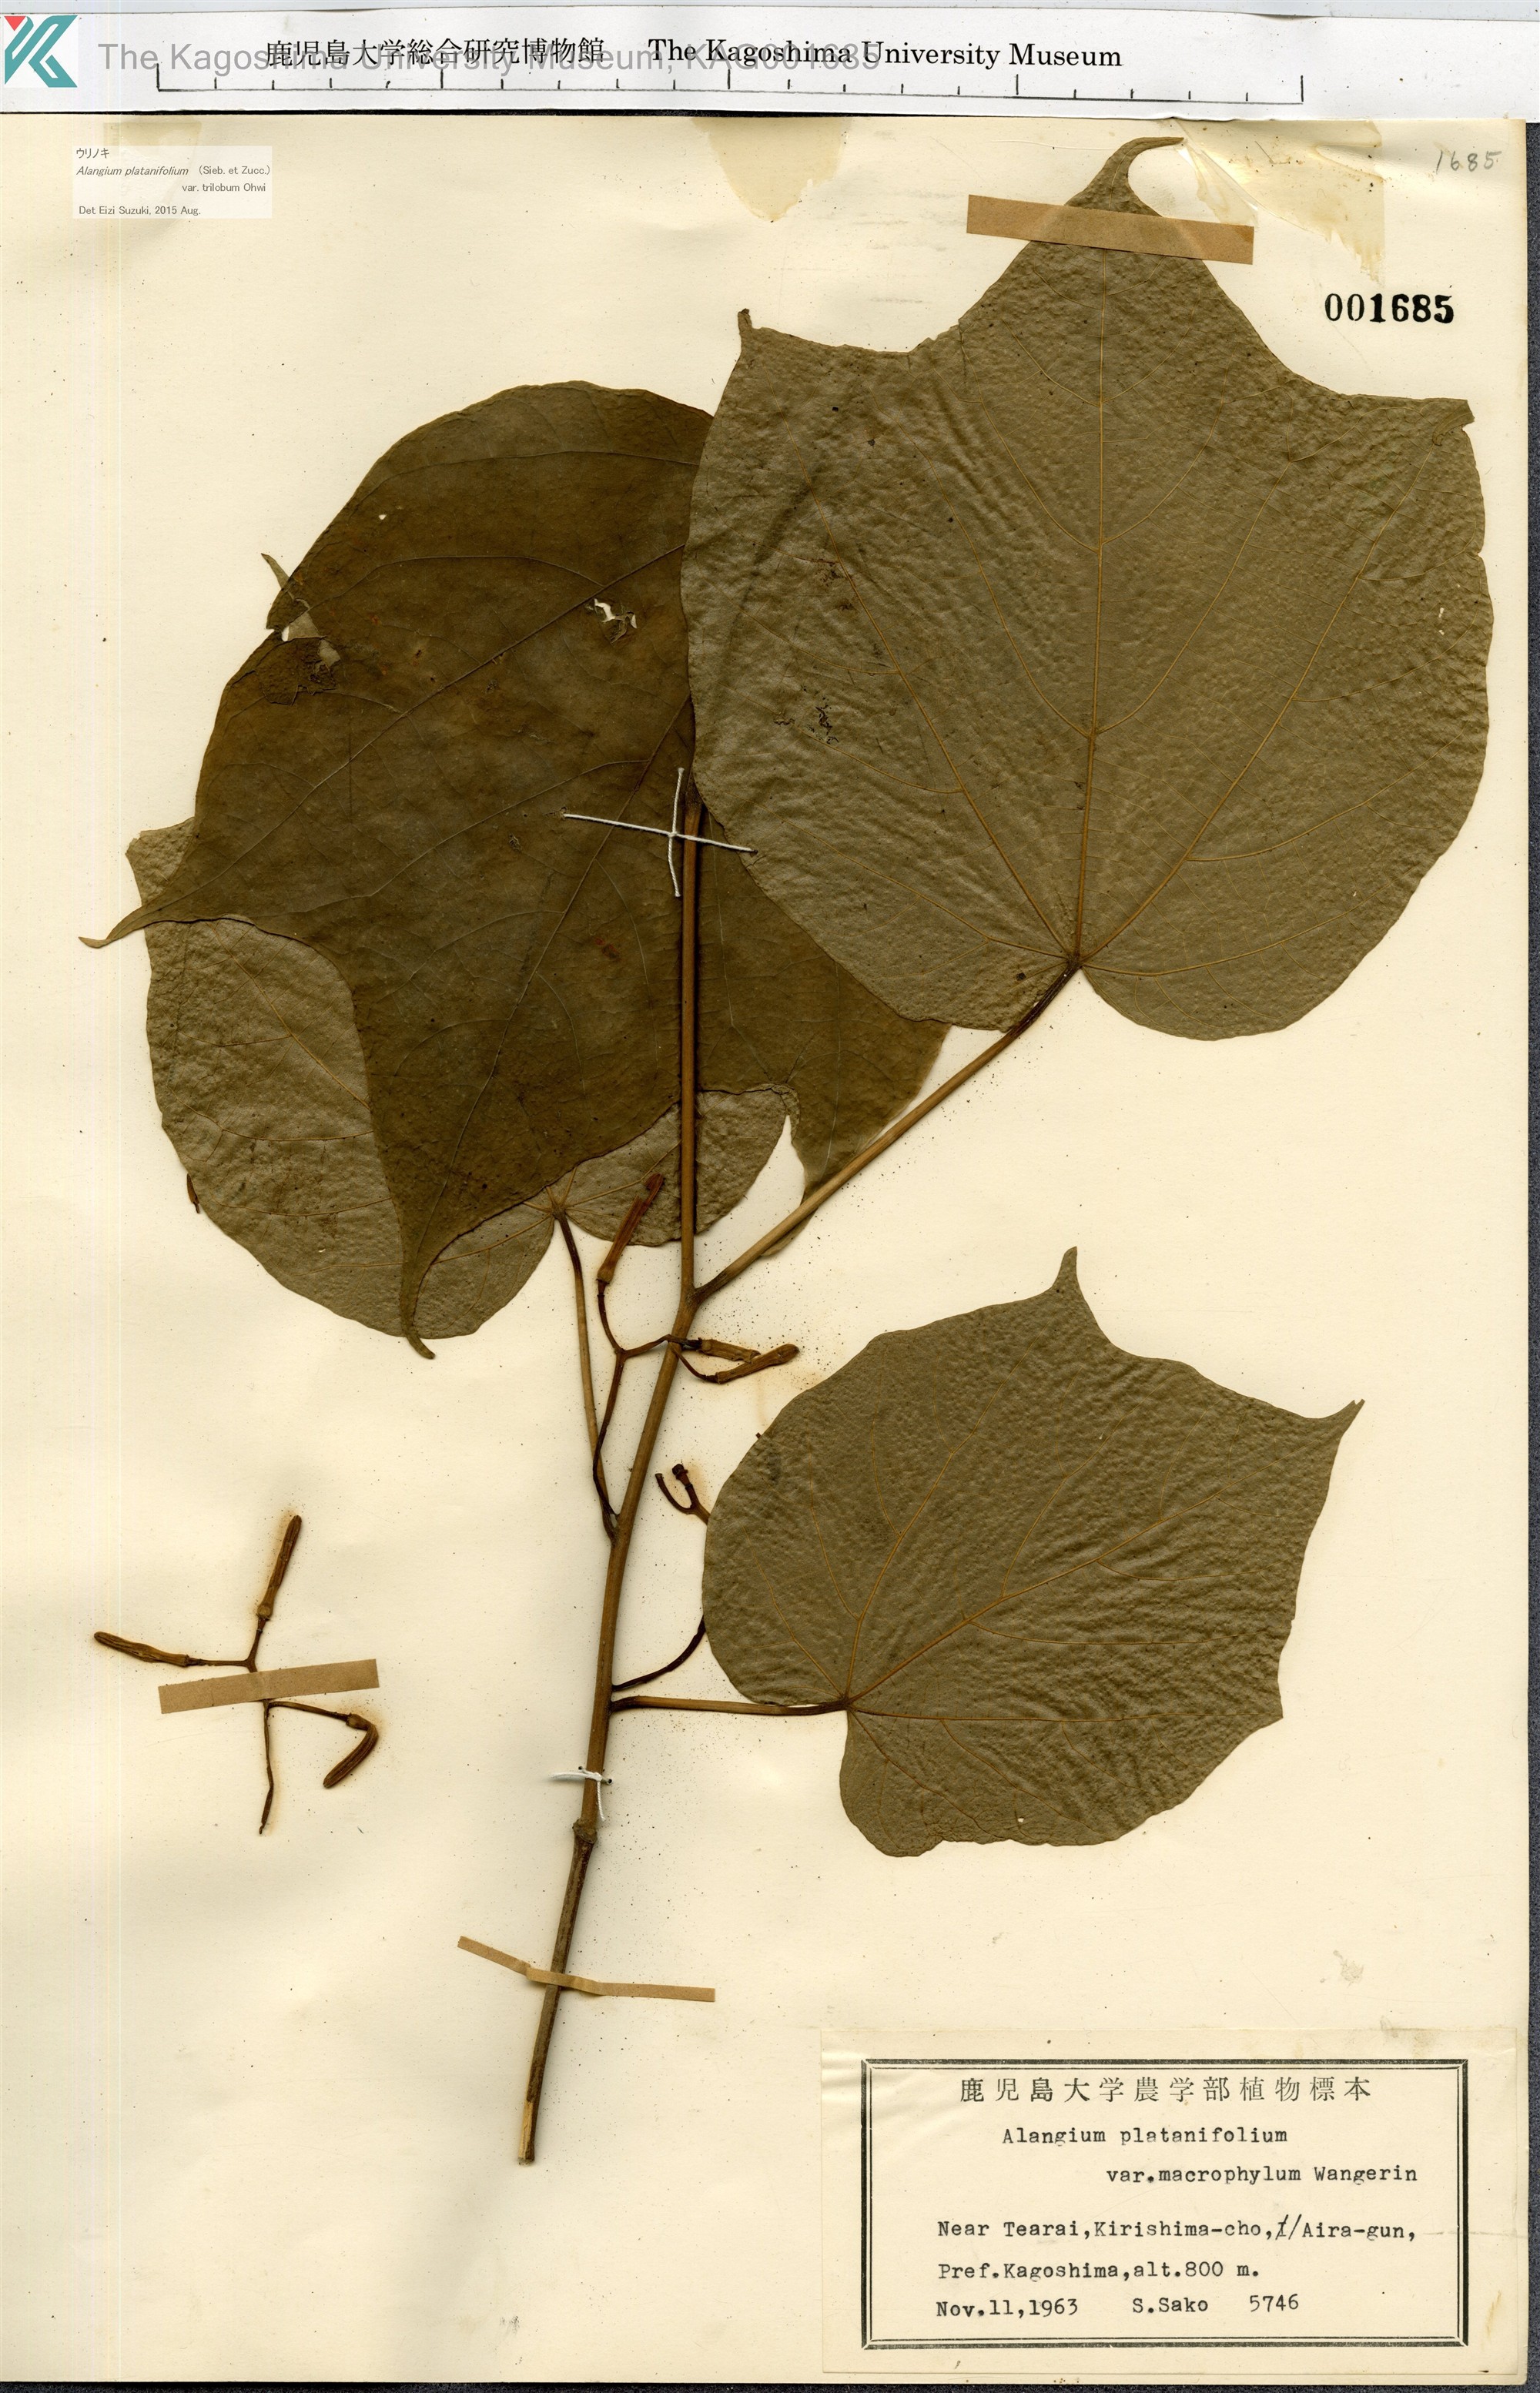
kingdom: Plantae
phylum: Tracheophyta
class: Magnoliopsida
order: Cornales
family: Cornaceae
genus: Alangium
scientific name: Alangium platanifolium
